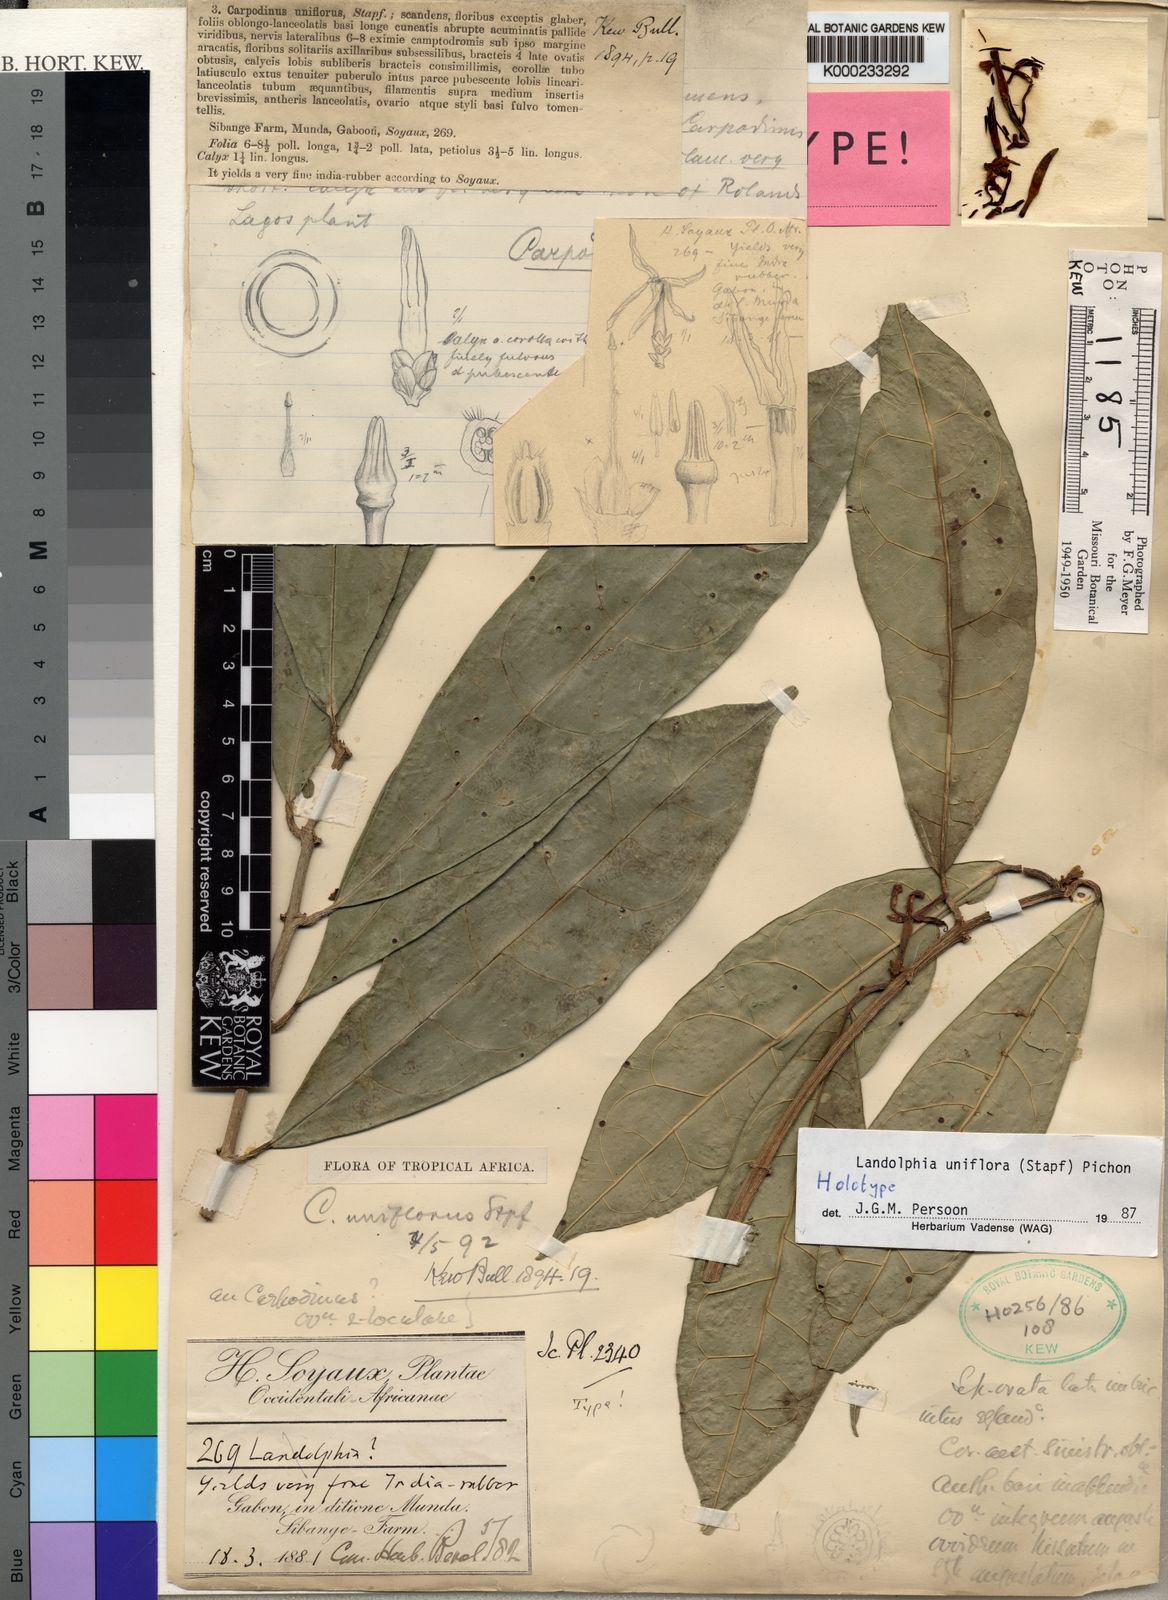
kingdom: Plantae
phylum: Tracheophyta
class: Magnoliopsida
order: Gentianales
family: Apocynaceae
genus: Landolphia
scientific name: Landolphia uniflora
